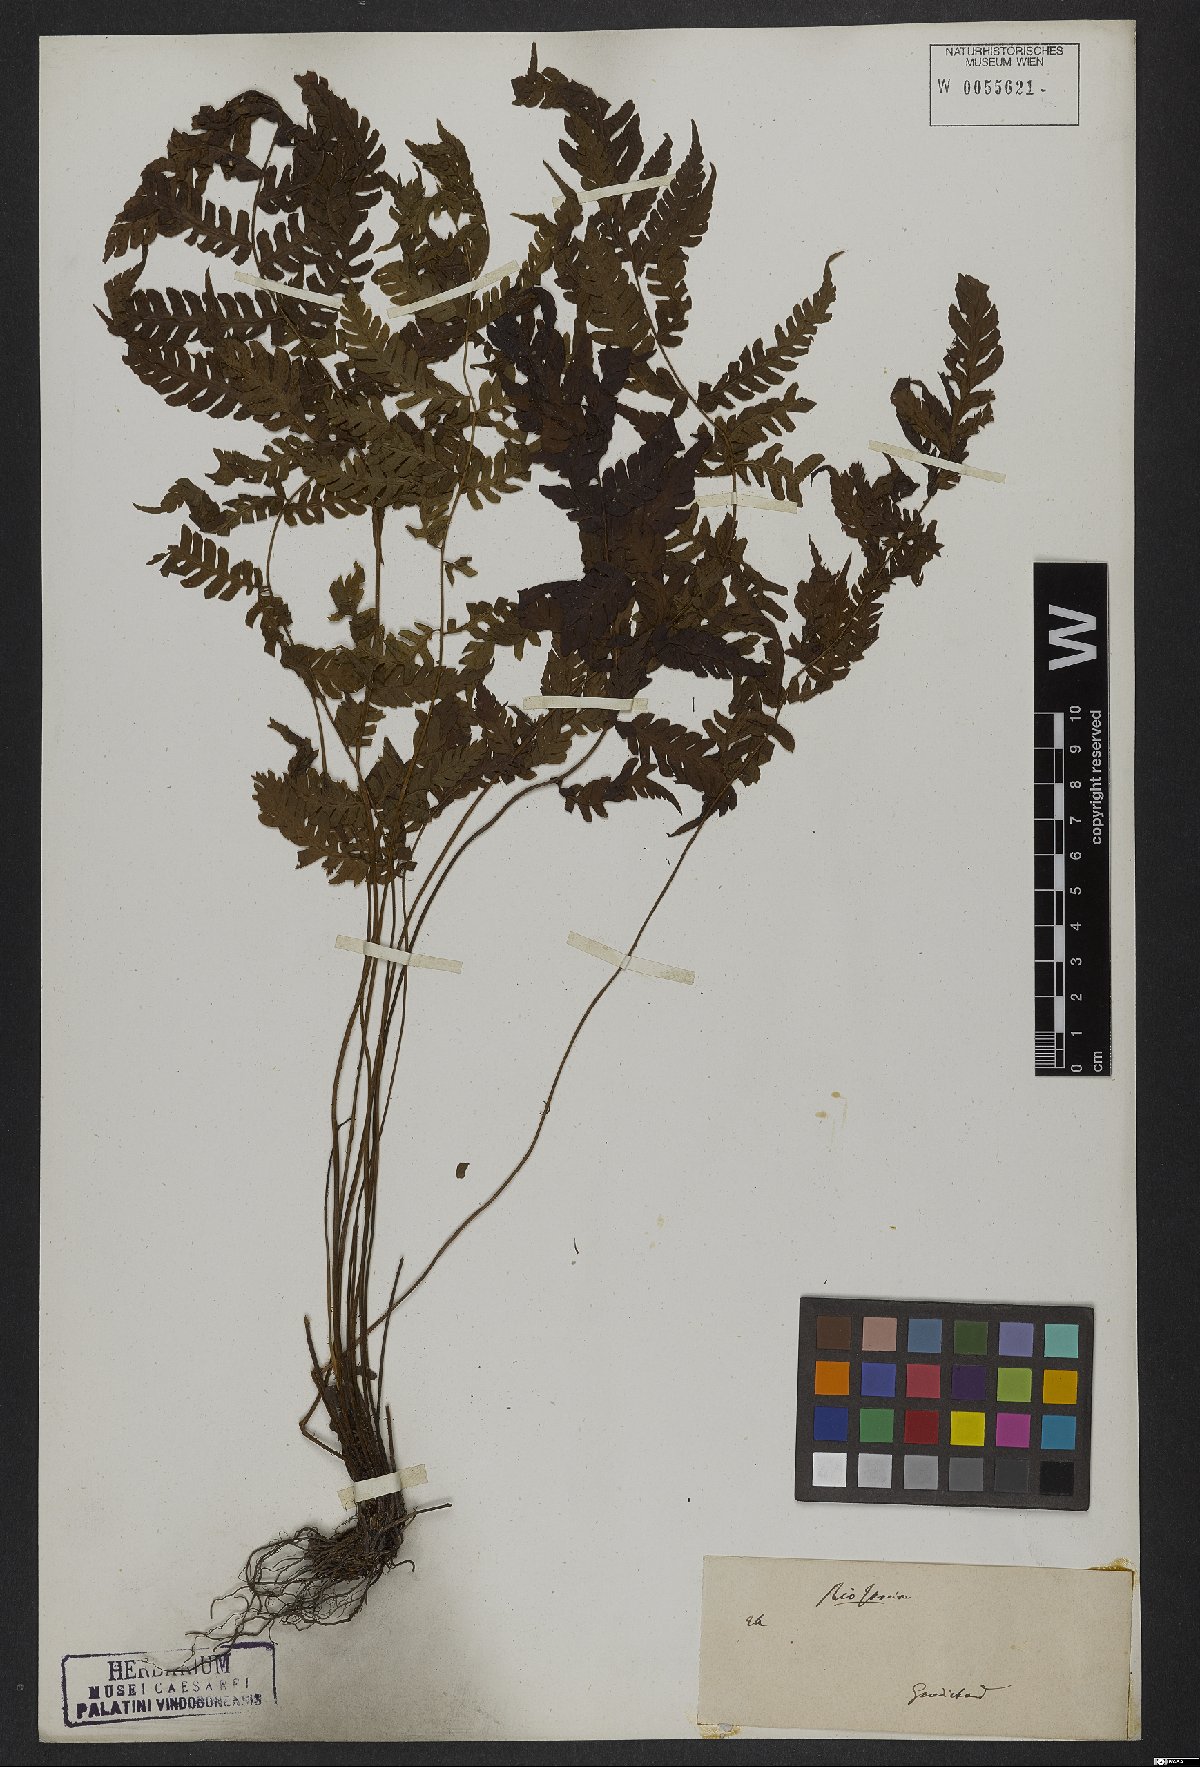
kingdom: Plantae
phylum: Tracheophyta
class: Polypodiopsida
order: Polypodiales
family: Dryopteridaceae
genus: Ctenitis
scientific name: Ctenitis falciculata
